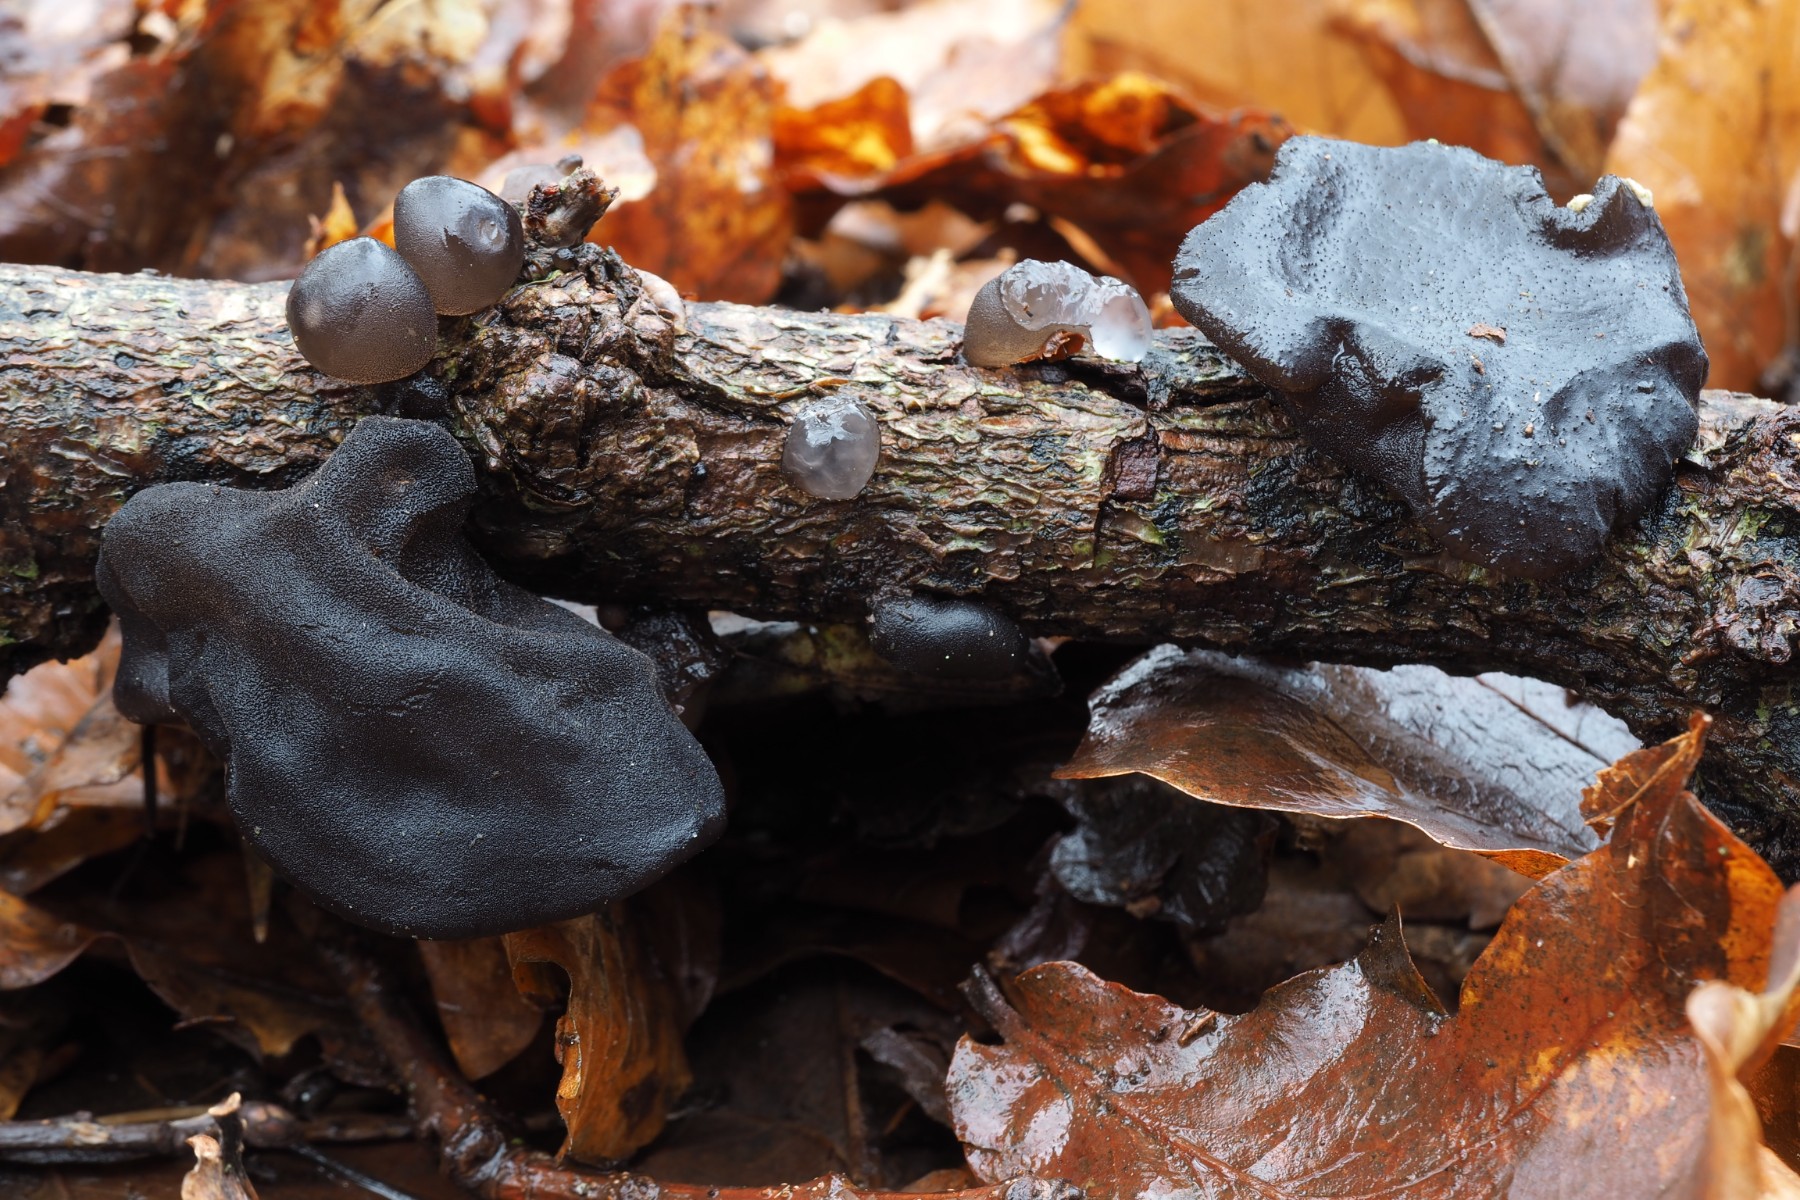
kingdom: Fungi
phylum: Basidiomycota
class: Agaricomycetes
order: Auriculariales
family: Auriculariaceae
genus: Exidia
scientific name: Exidia glandulosa
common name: ege-bævretop
